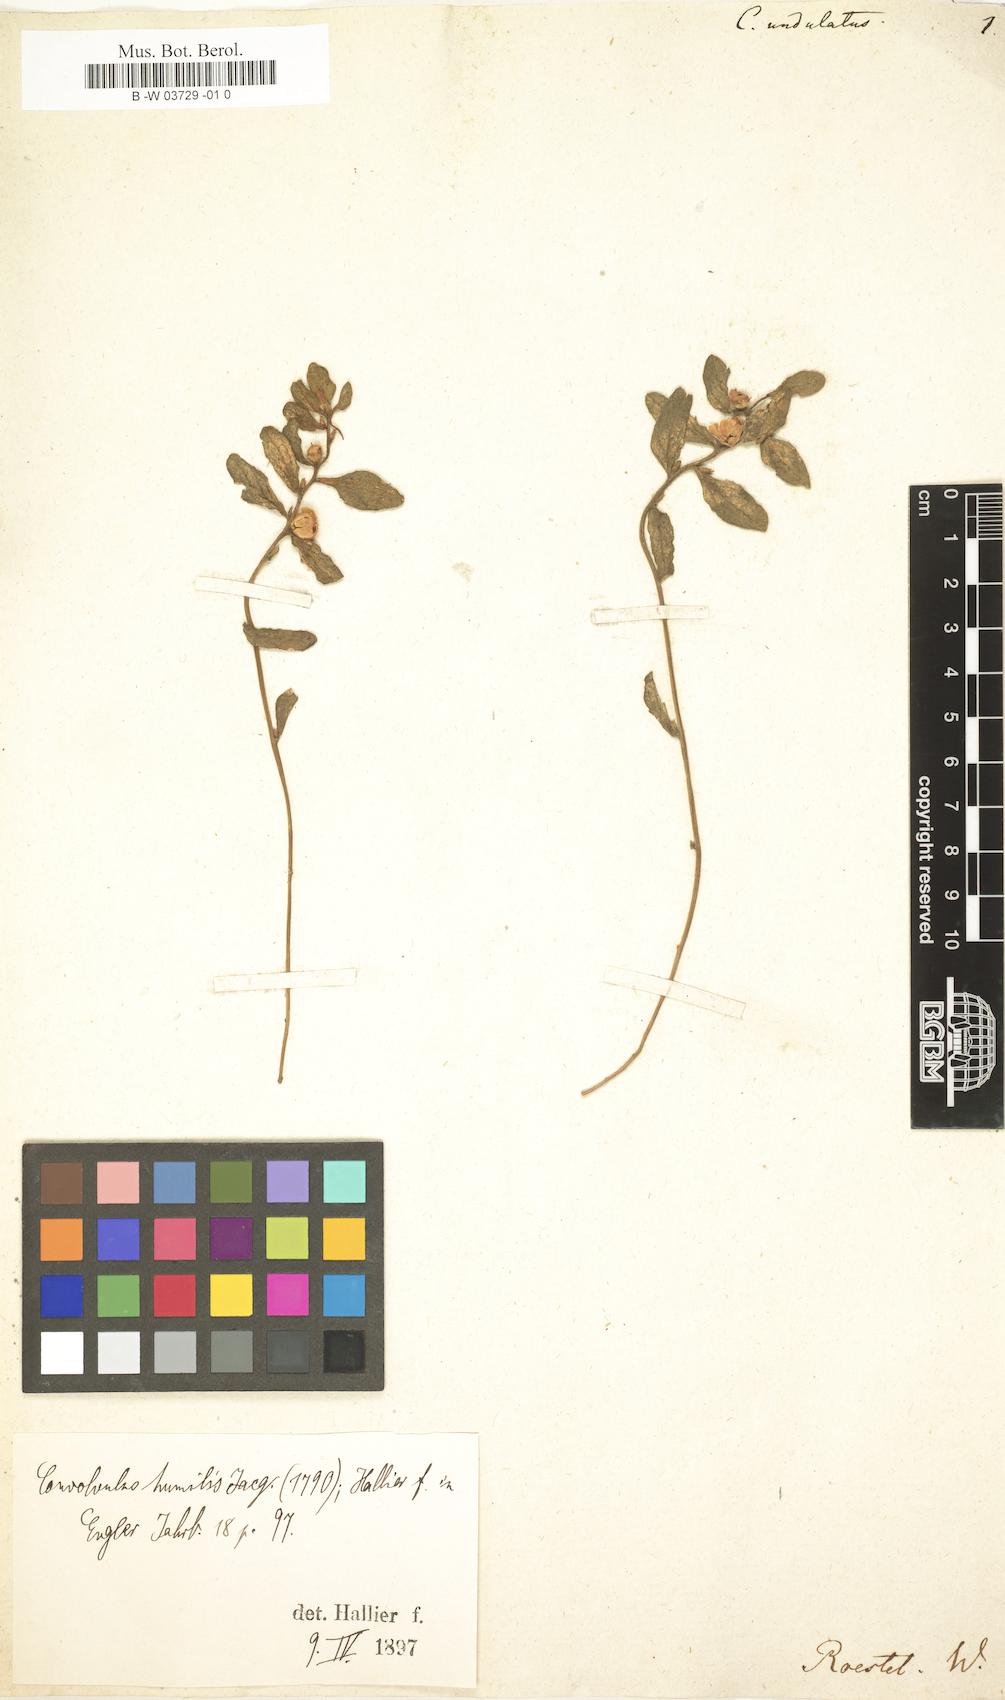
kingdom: Plantae
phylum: Tracheophyta
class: Magnoliopsida
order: Solanales
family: Convolvulaceae
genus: Convolvulus
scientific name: Convolvulus humilis
